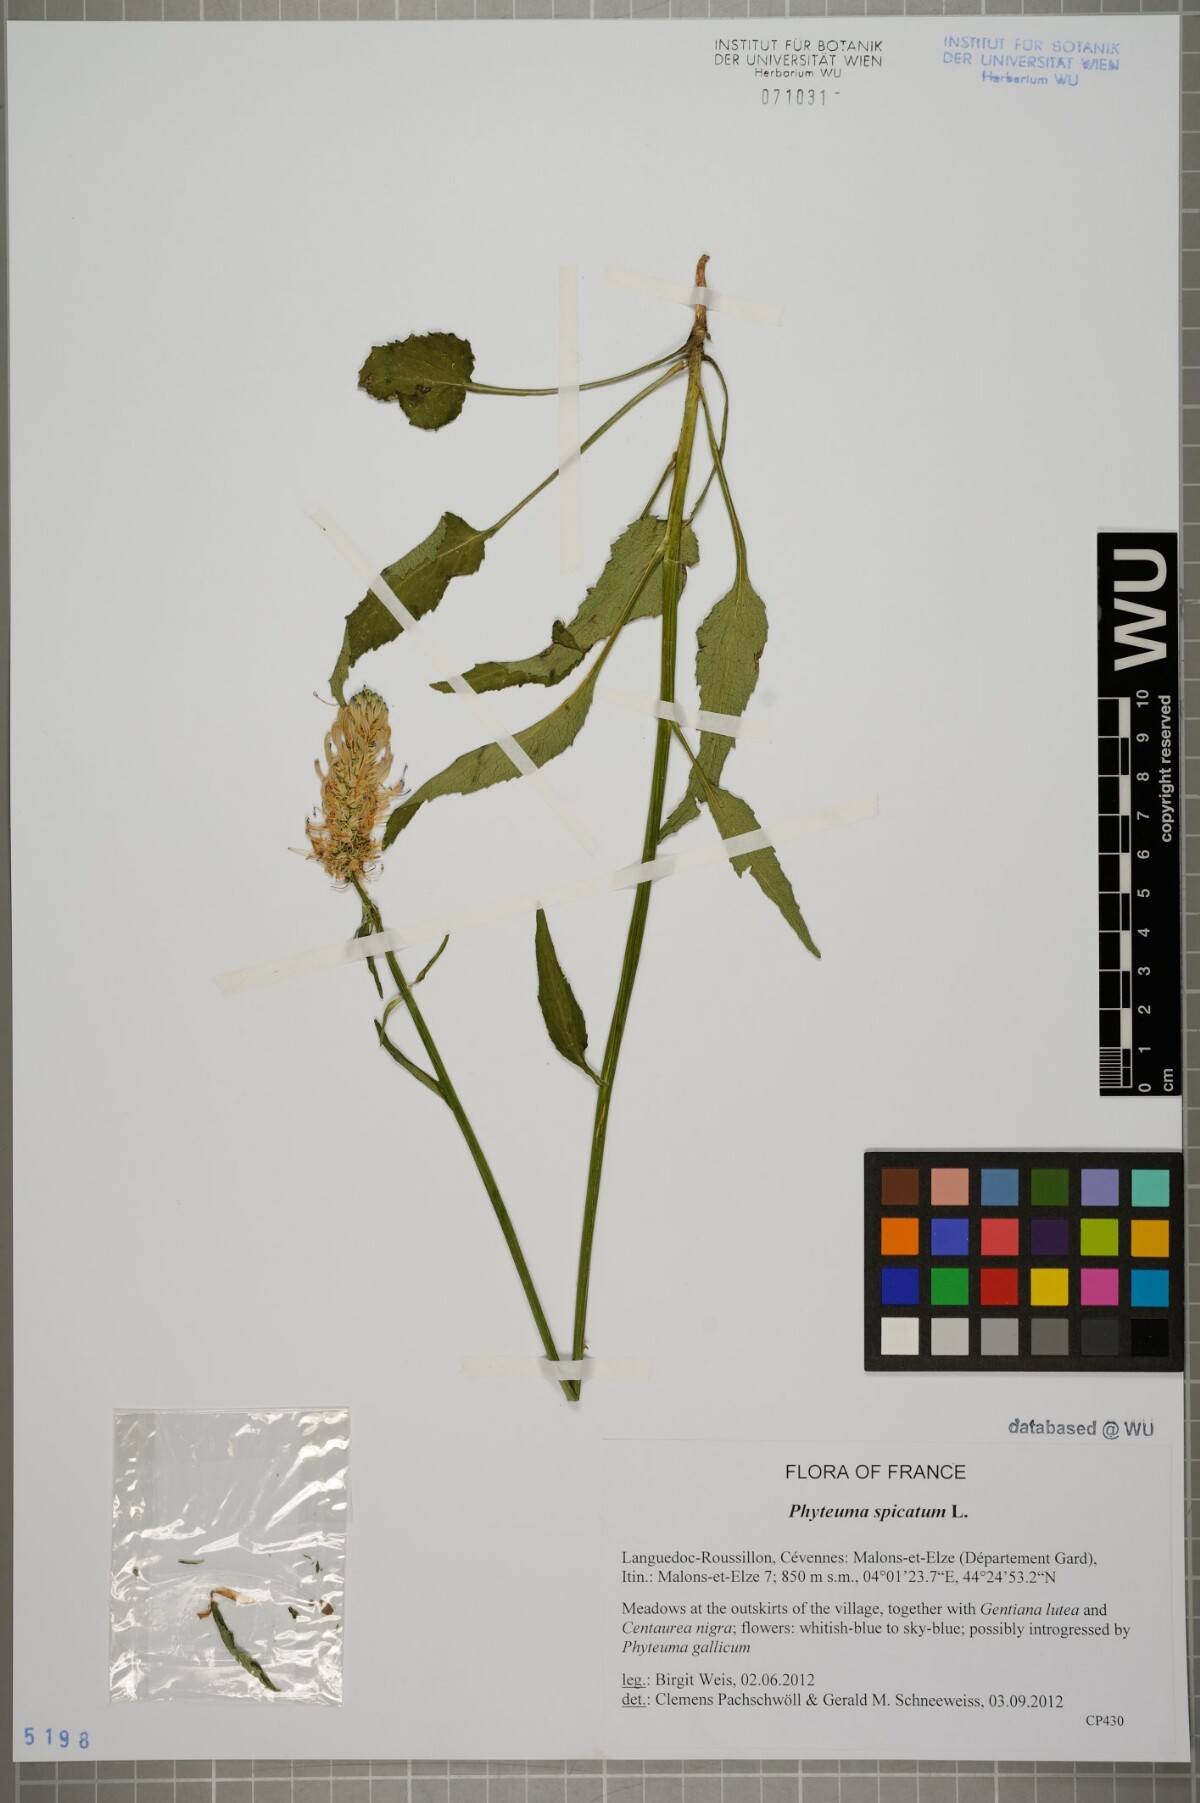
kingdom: Plantae
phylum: Tracheophyta
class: Magnoliopsida
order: Asterales
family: Campanulaceae
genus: Phyteuma
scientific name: Phyteuma spicatum
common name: Spiked rampion
